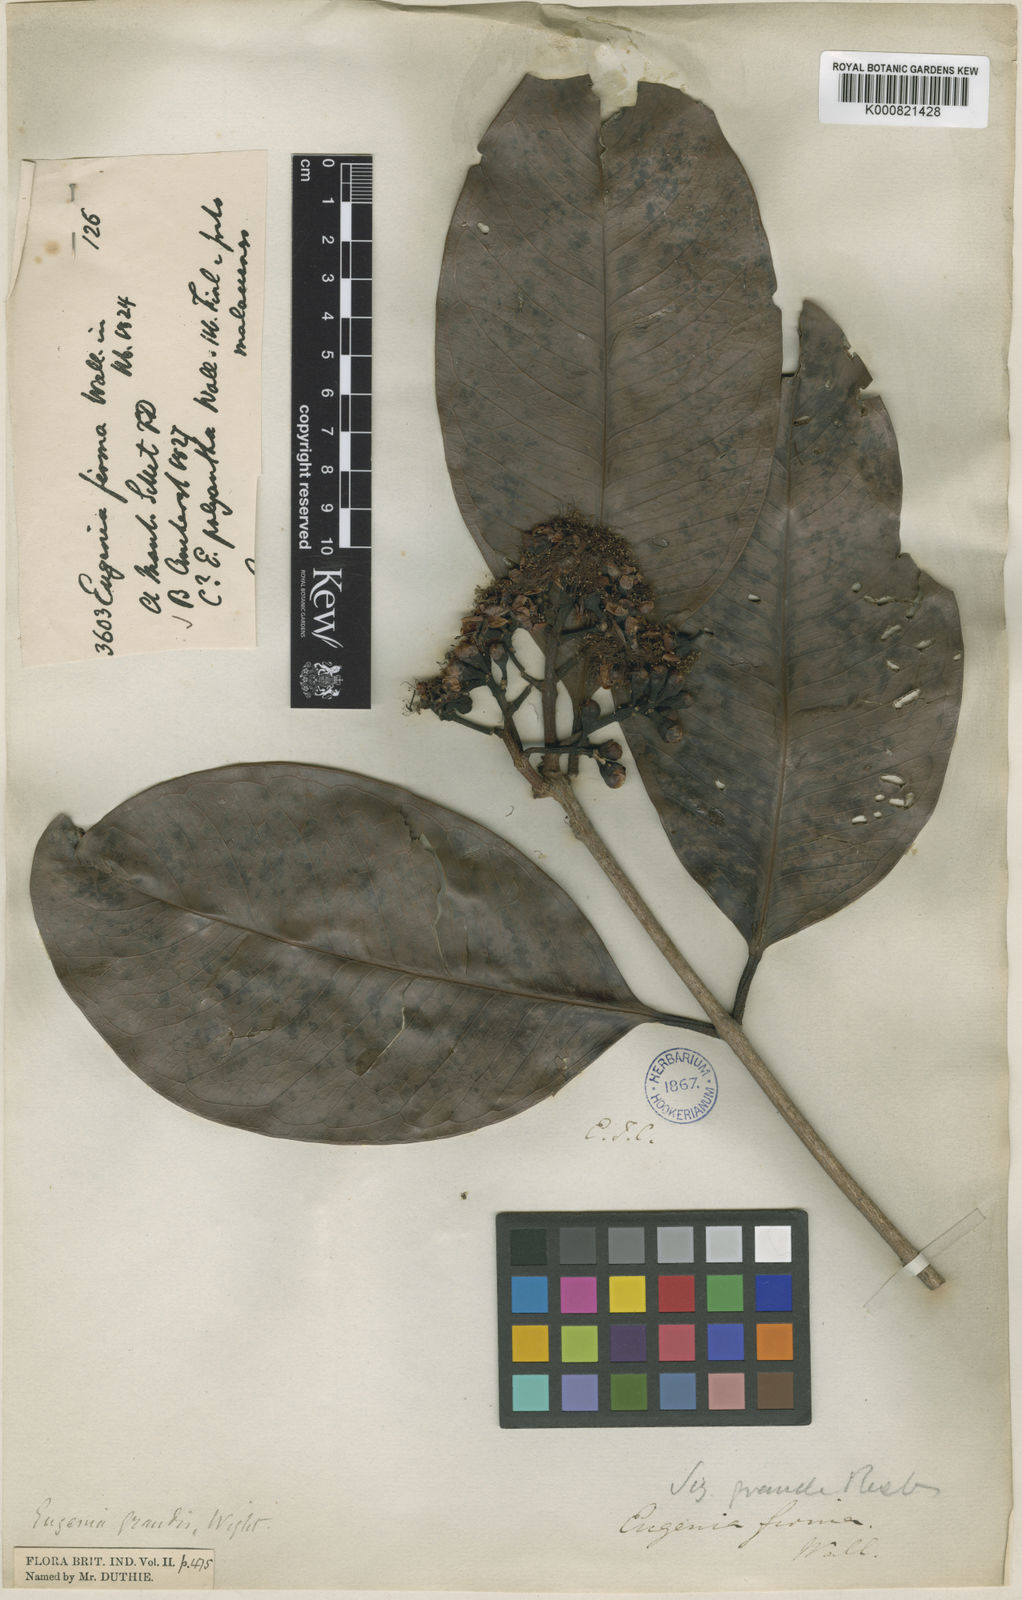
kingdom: Plantae
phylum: Tracheophyta
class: Magnoliopsida
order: Myrtales
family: Myrtaceae
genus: Syzygium
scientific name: Syzygium grande
